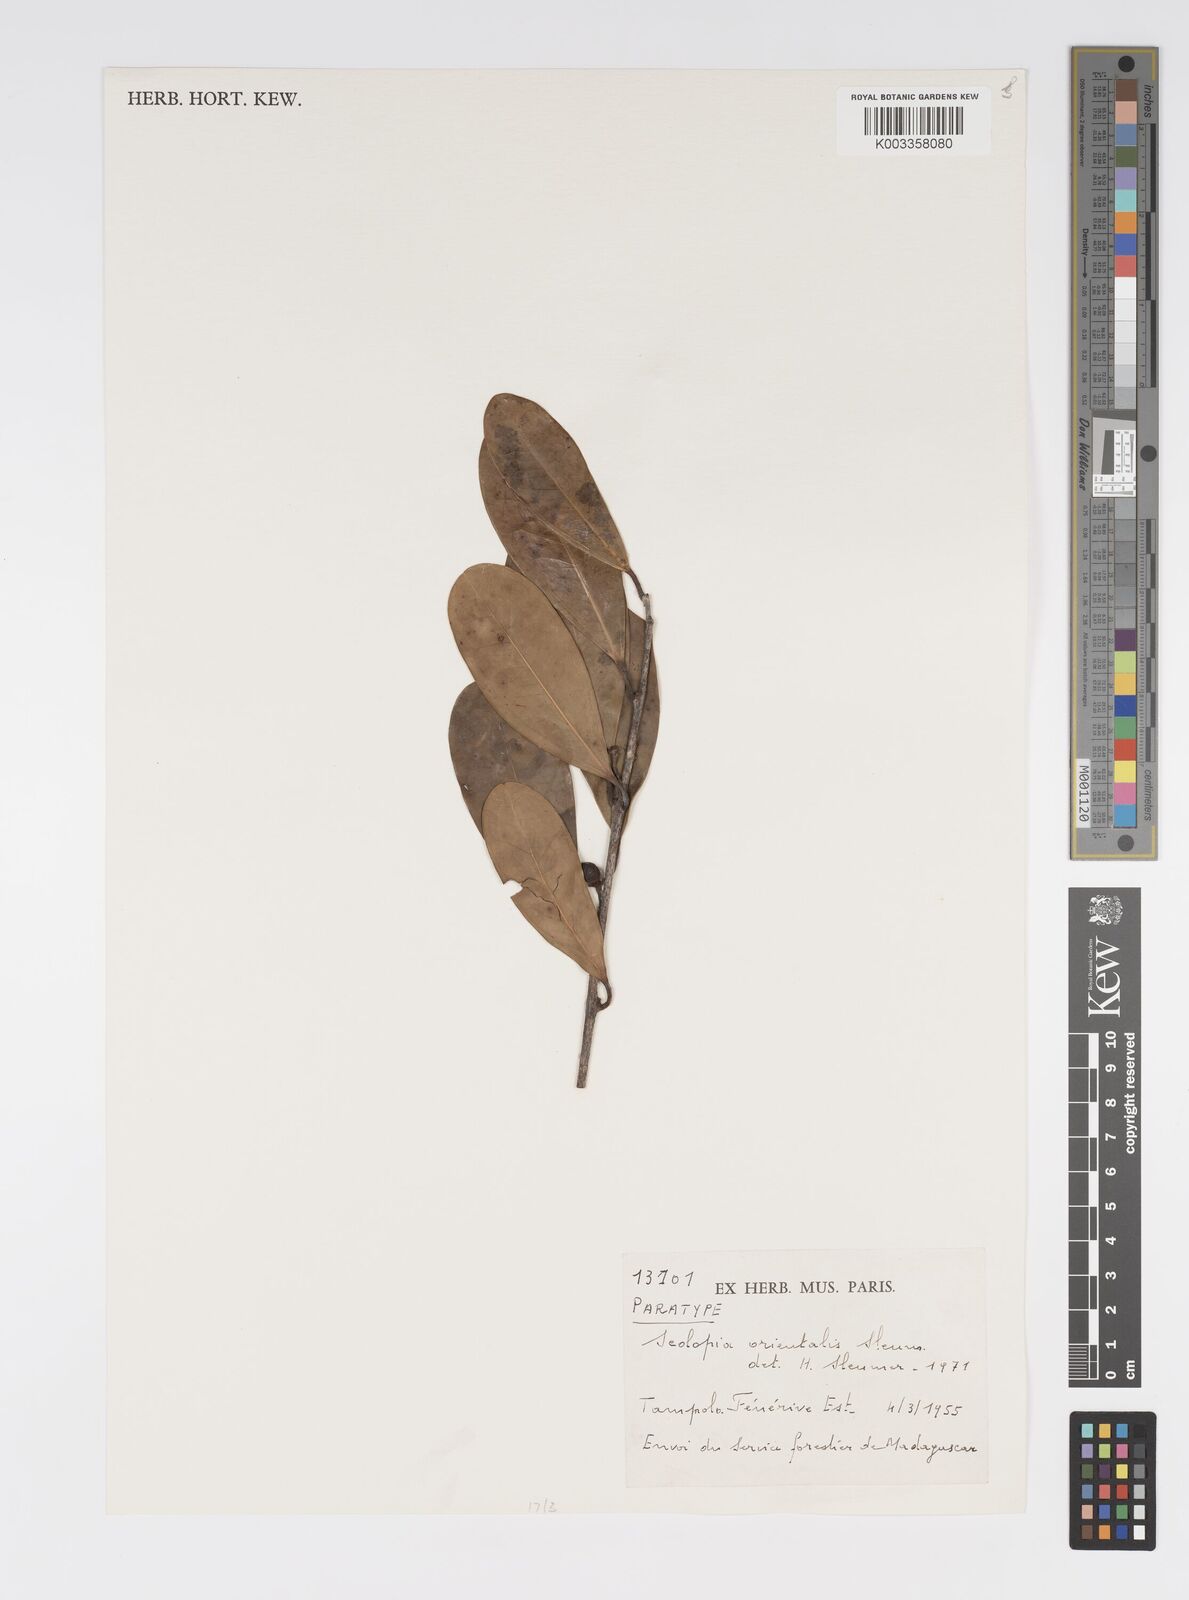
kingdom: Plantae
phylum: Tracheophyta
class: Magnoliopsida
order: Malpighiales
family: Salicaceae
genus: Scolopia
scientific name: Scolopia orientalis
